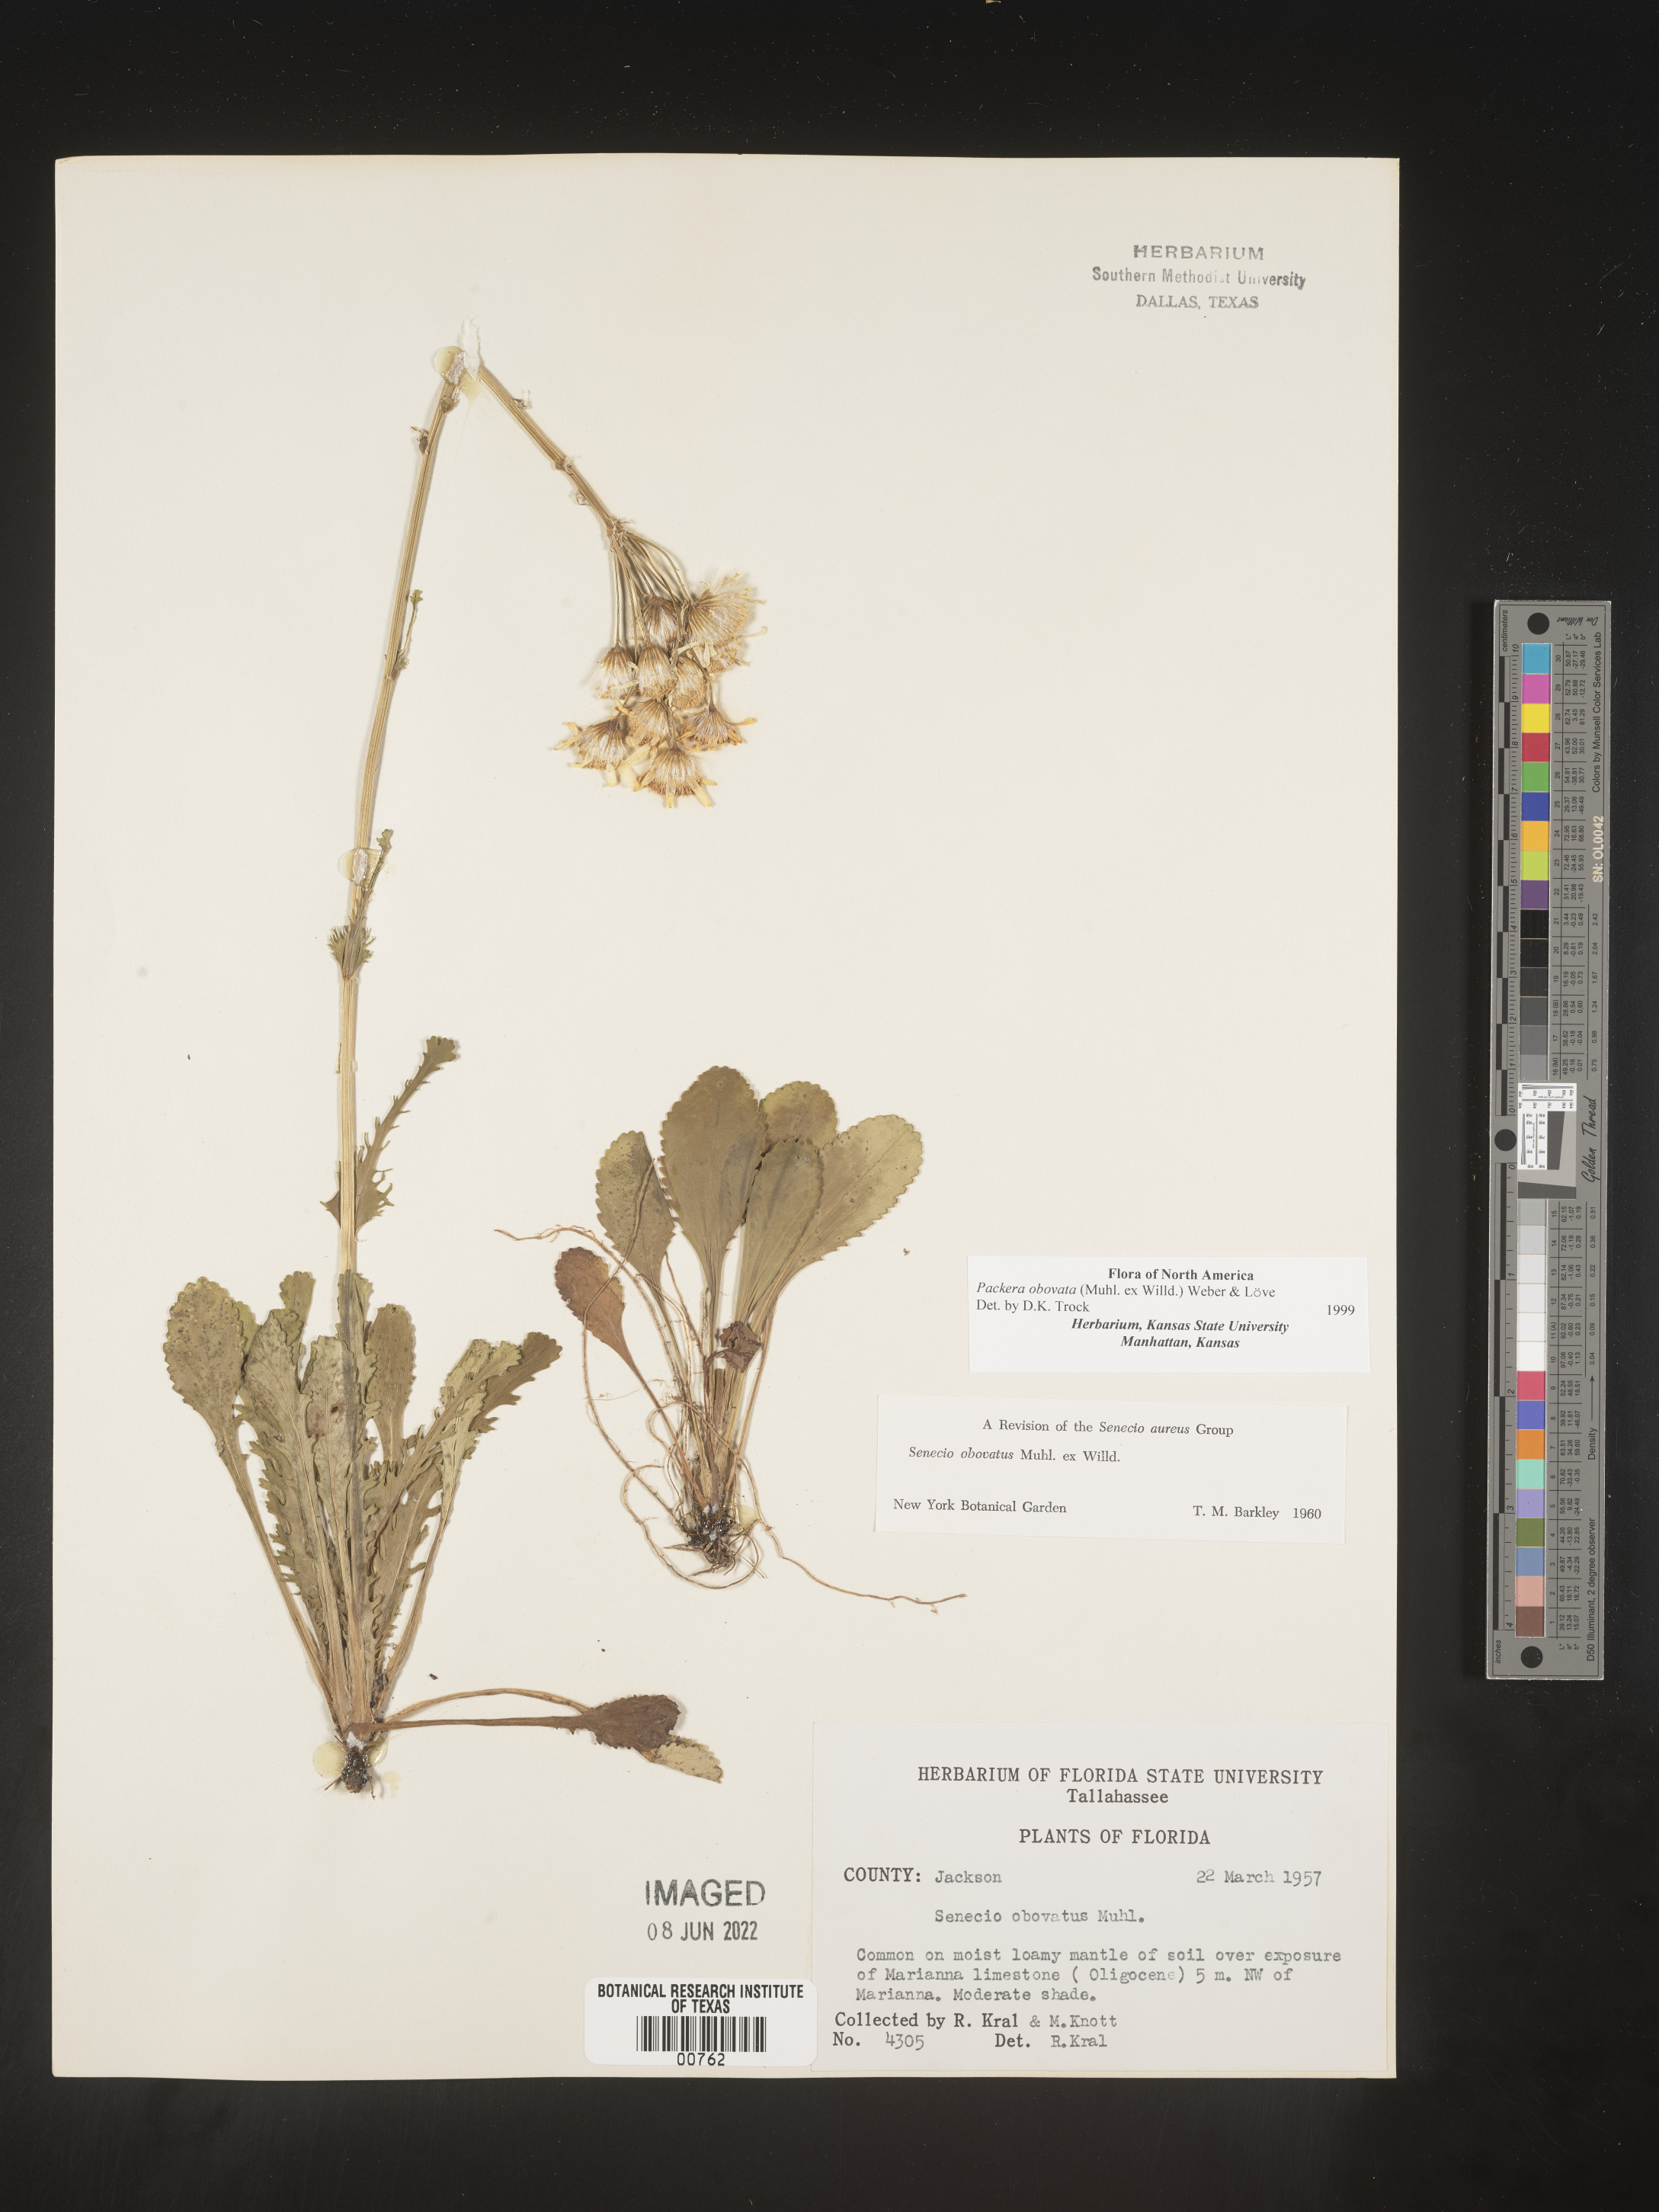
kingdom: Plantae
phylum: Tracheophyta
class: Magnoliopsida
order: Asterales
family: Asteraceae
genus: Packera
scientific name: Packera obovata
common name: Round-leaf ragwort
